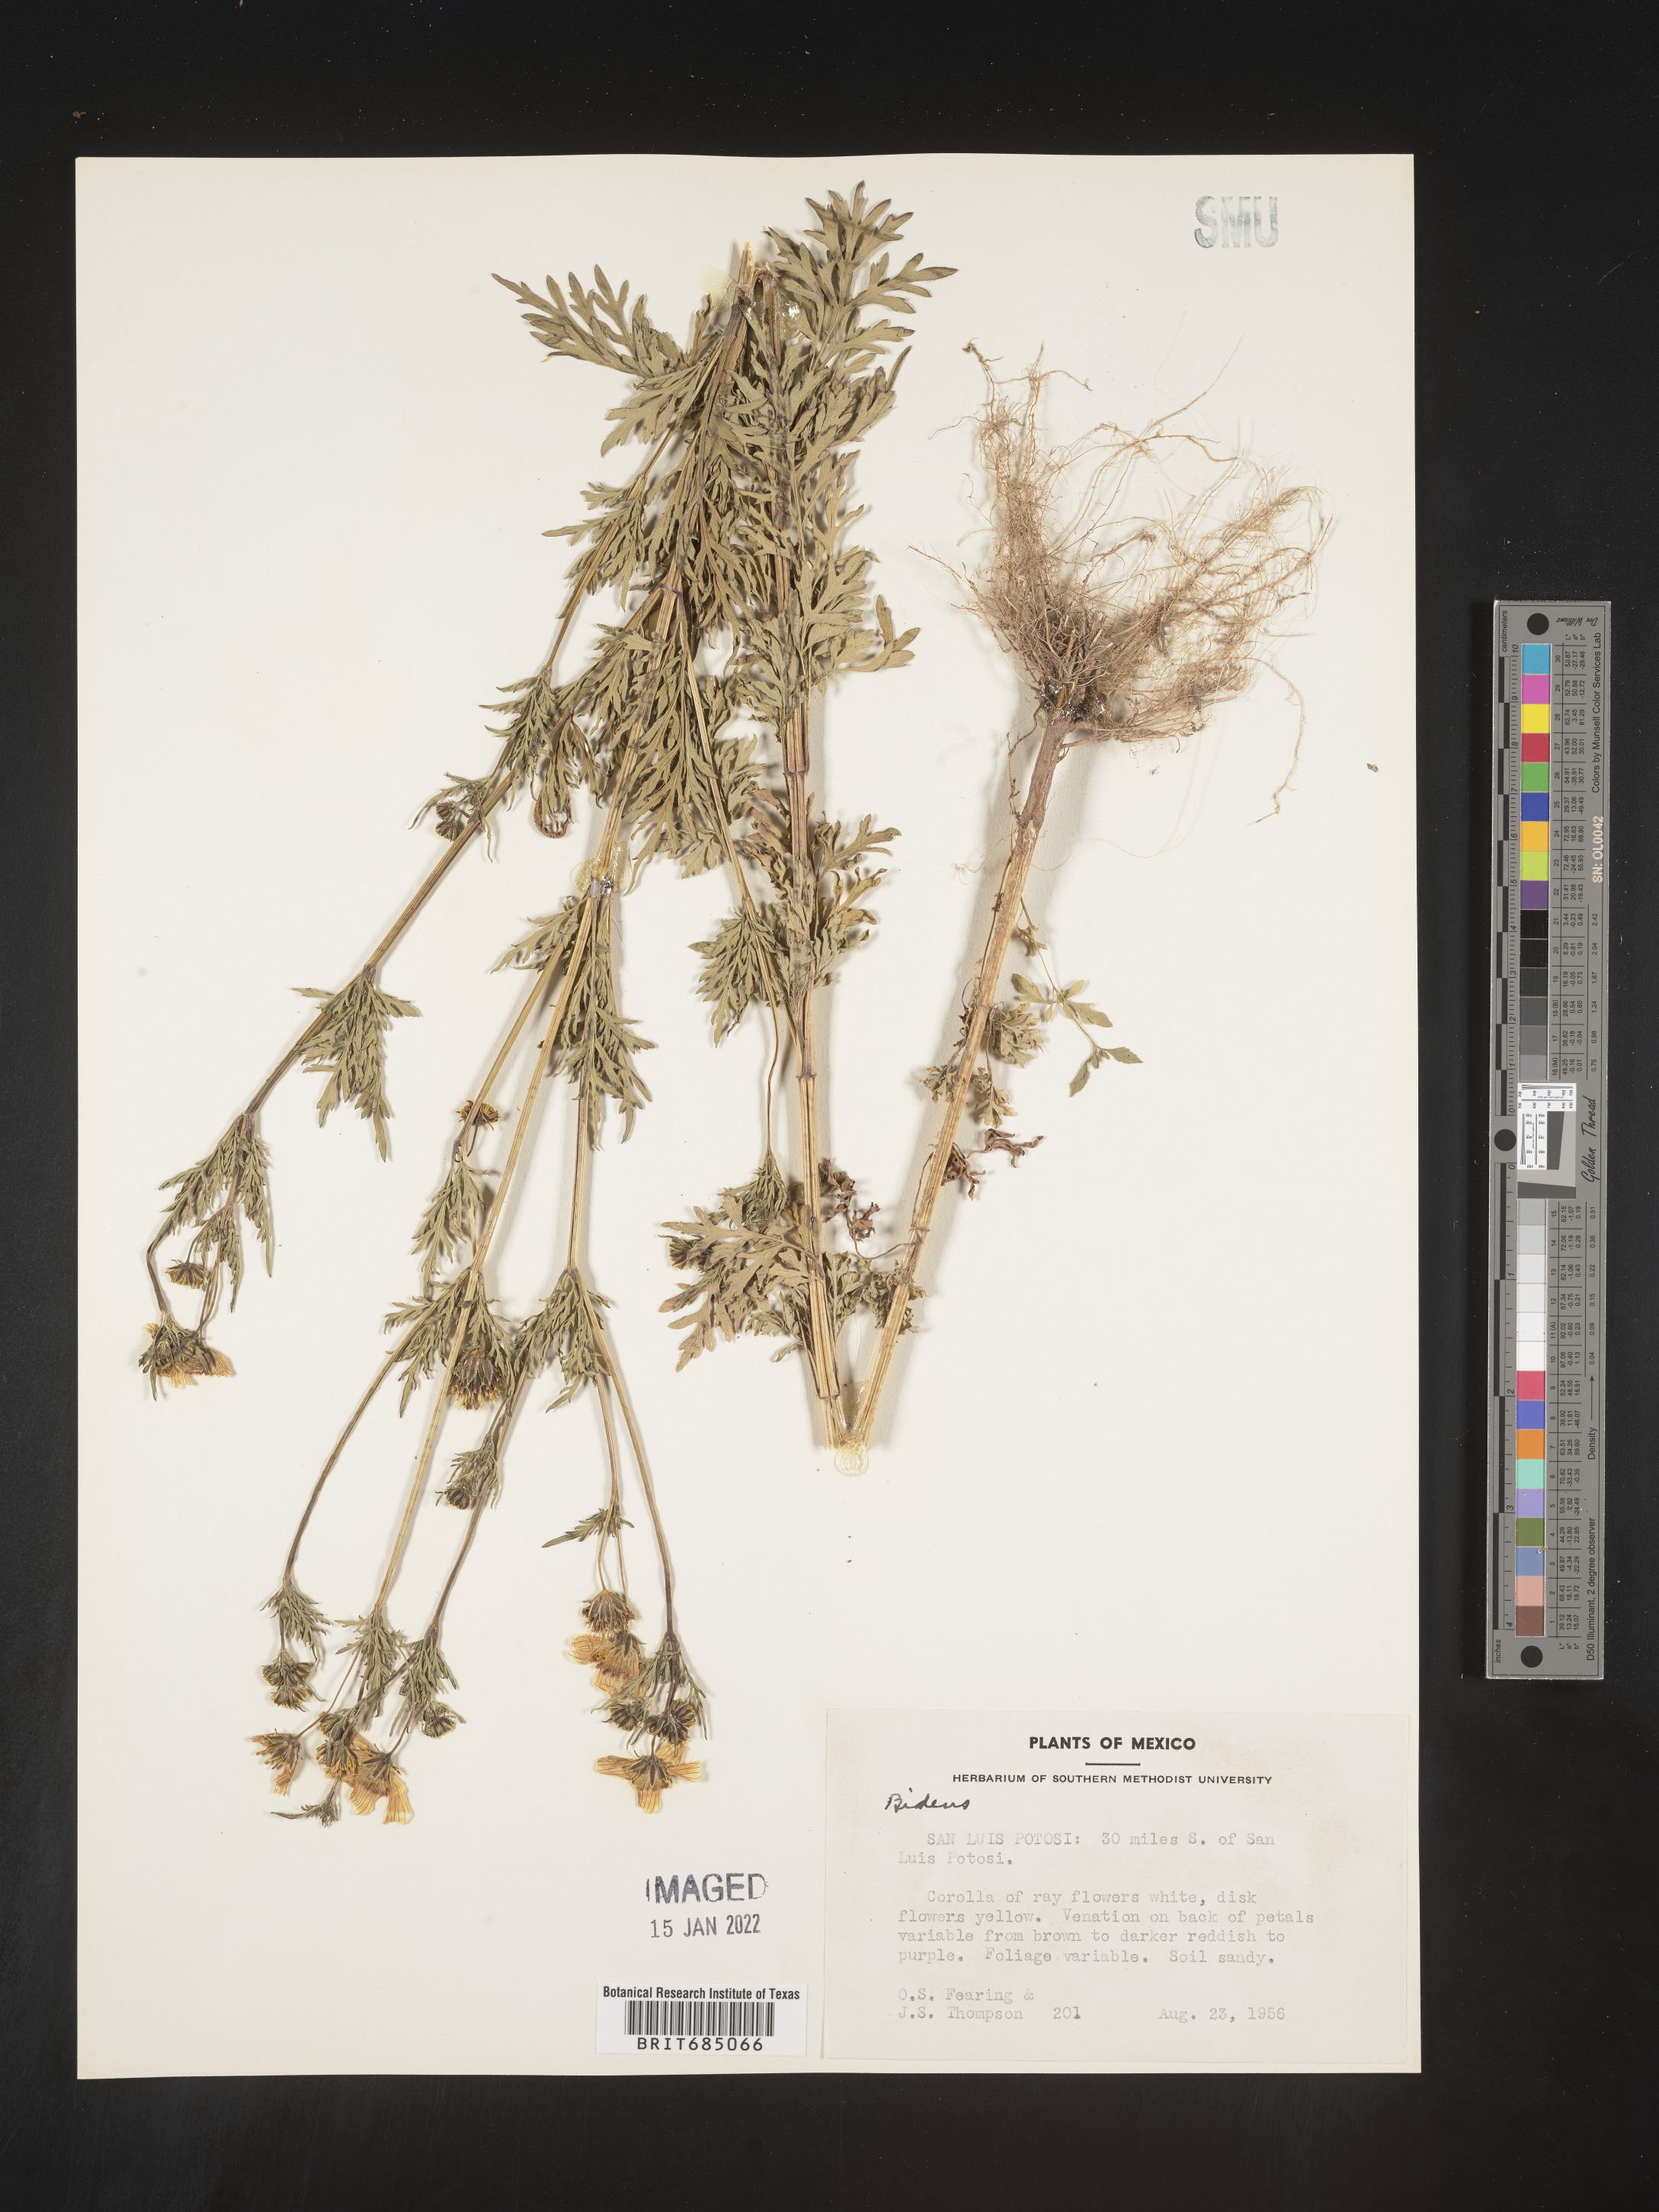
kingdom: Plantae
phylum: Tracheophyta
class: Magnoliopsida
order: Asterales
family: Asteraceae
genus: Bidens
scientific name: Bidens
